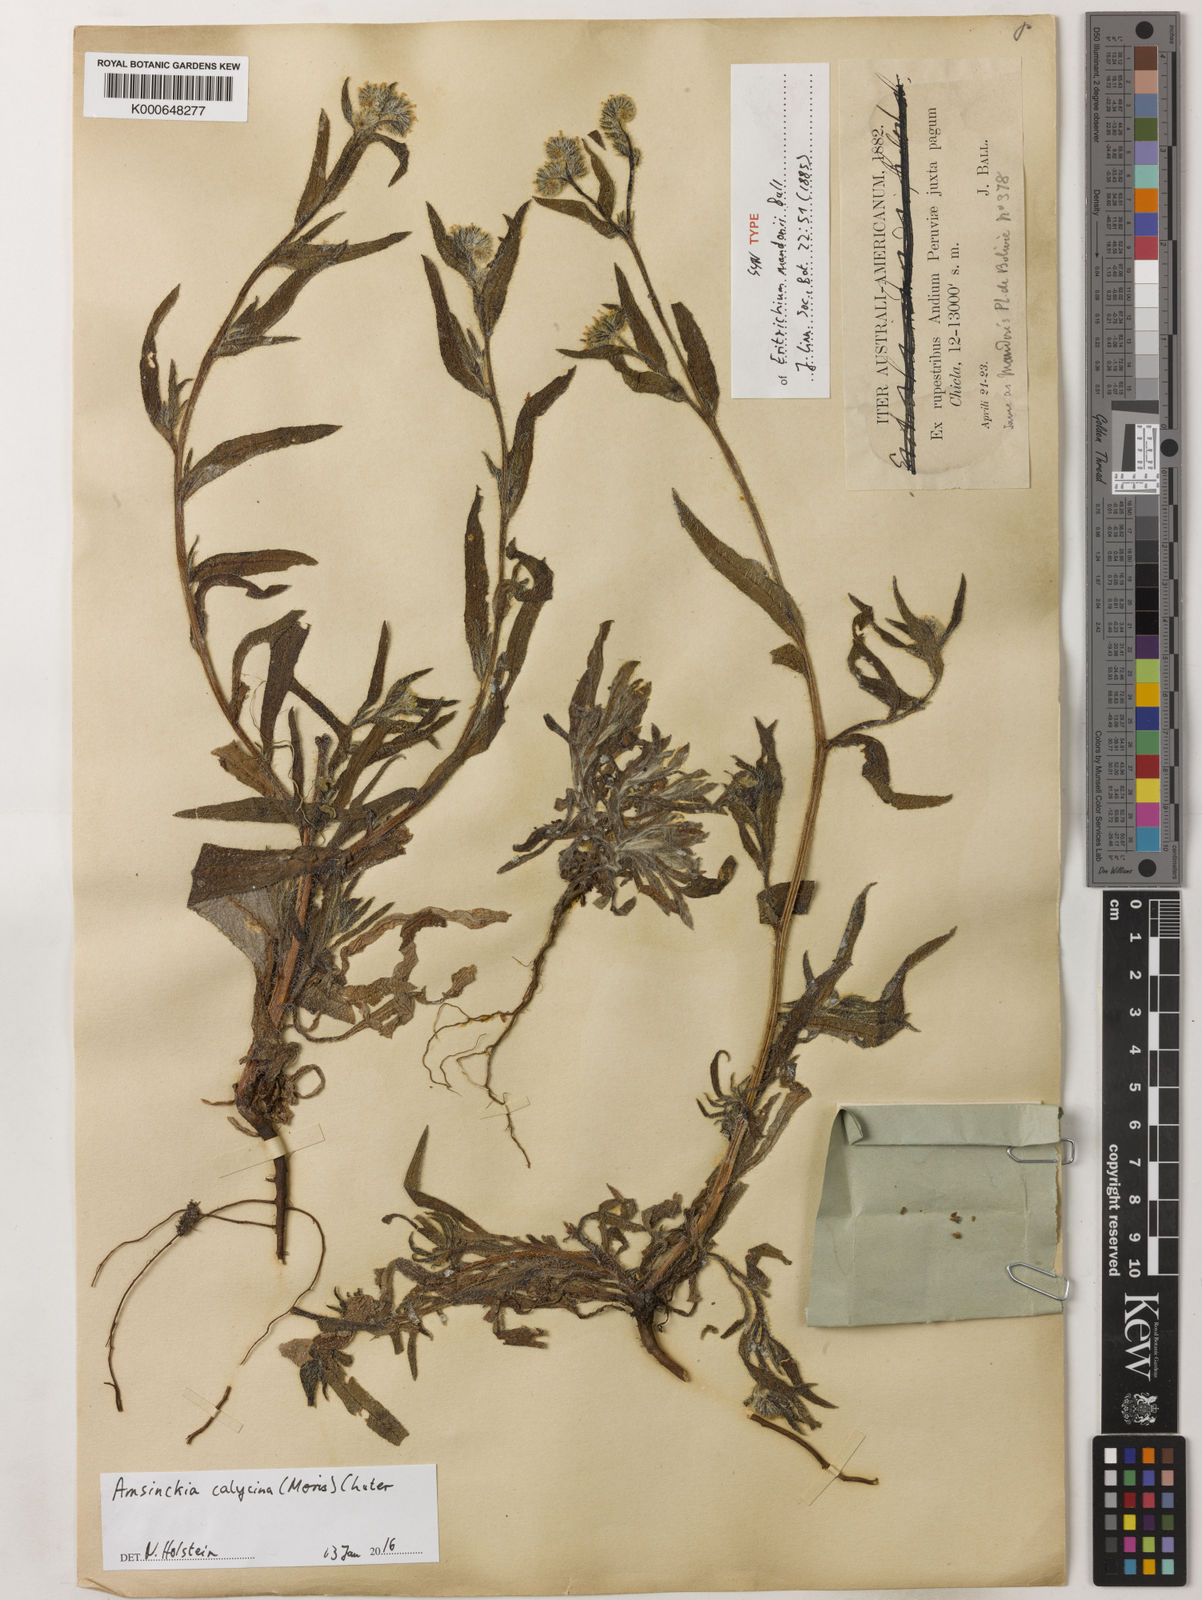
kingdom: Plantae
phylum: Tracheophyta
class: Magnoliopsida
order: Boraginales
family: Boraginaceae
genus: Amsinckia
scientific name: Amsinckia calycina
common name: Hairy fiddleneck
